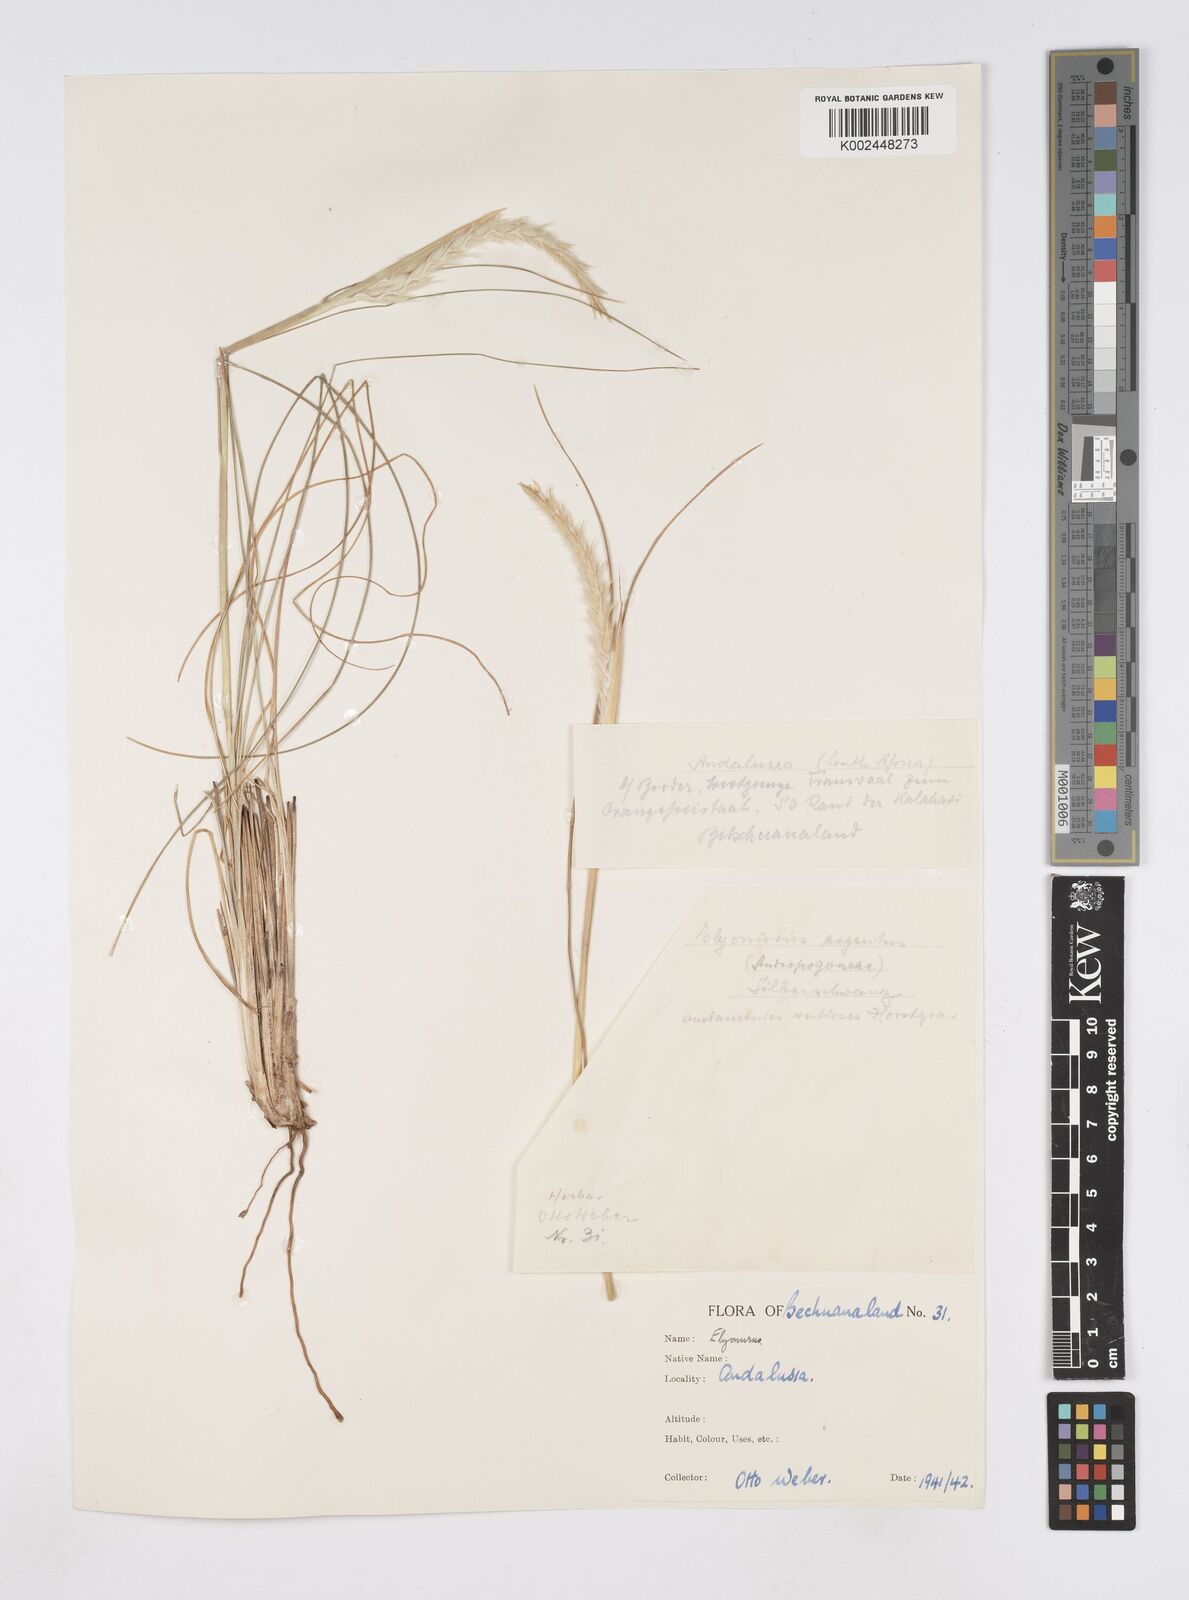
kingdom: Plantae
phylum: Tracheophyta
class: Liliopsida
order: Poales
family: Poaceae
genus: Elionurus
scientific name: Elionurus muticus
